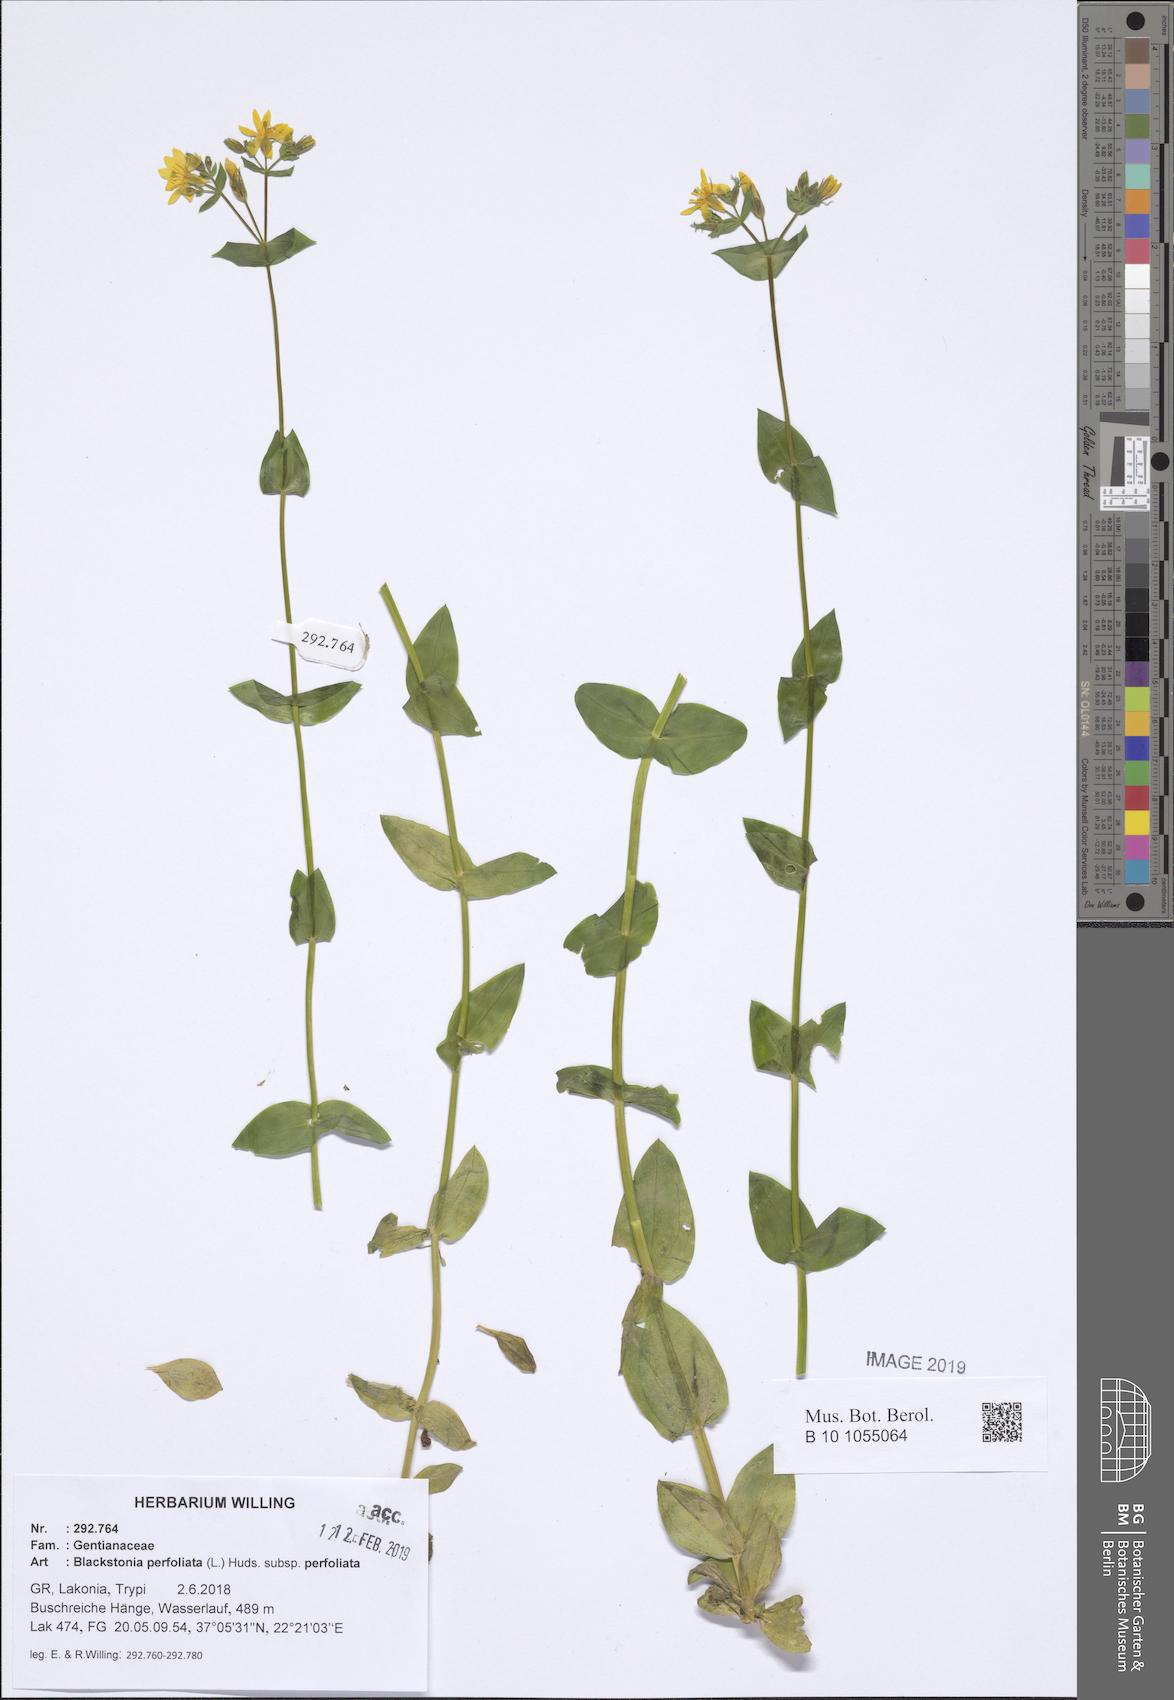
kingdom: Plantae
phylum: Tracheophyta
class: Magnoliopsida
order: Gentianales
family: Gentianaceae
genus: Blackstonia
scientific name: Blackstonia perfoliata
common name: Yellow-wort
